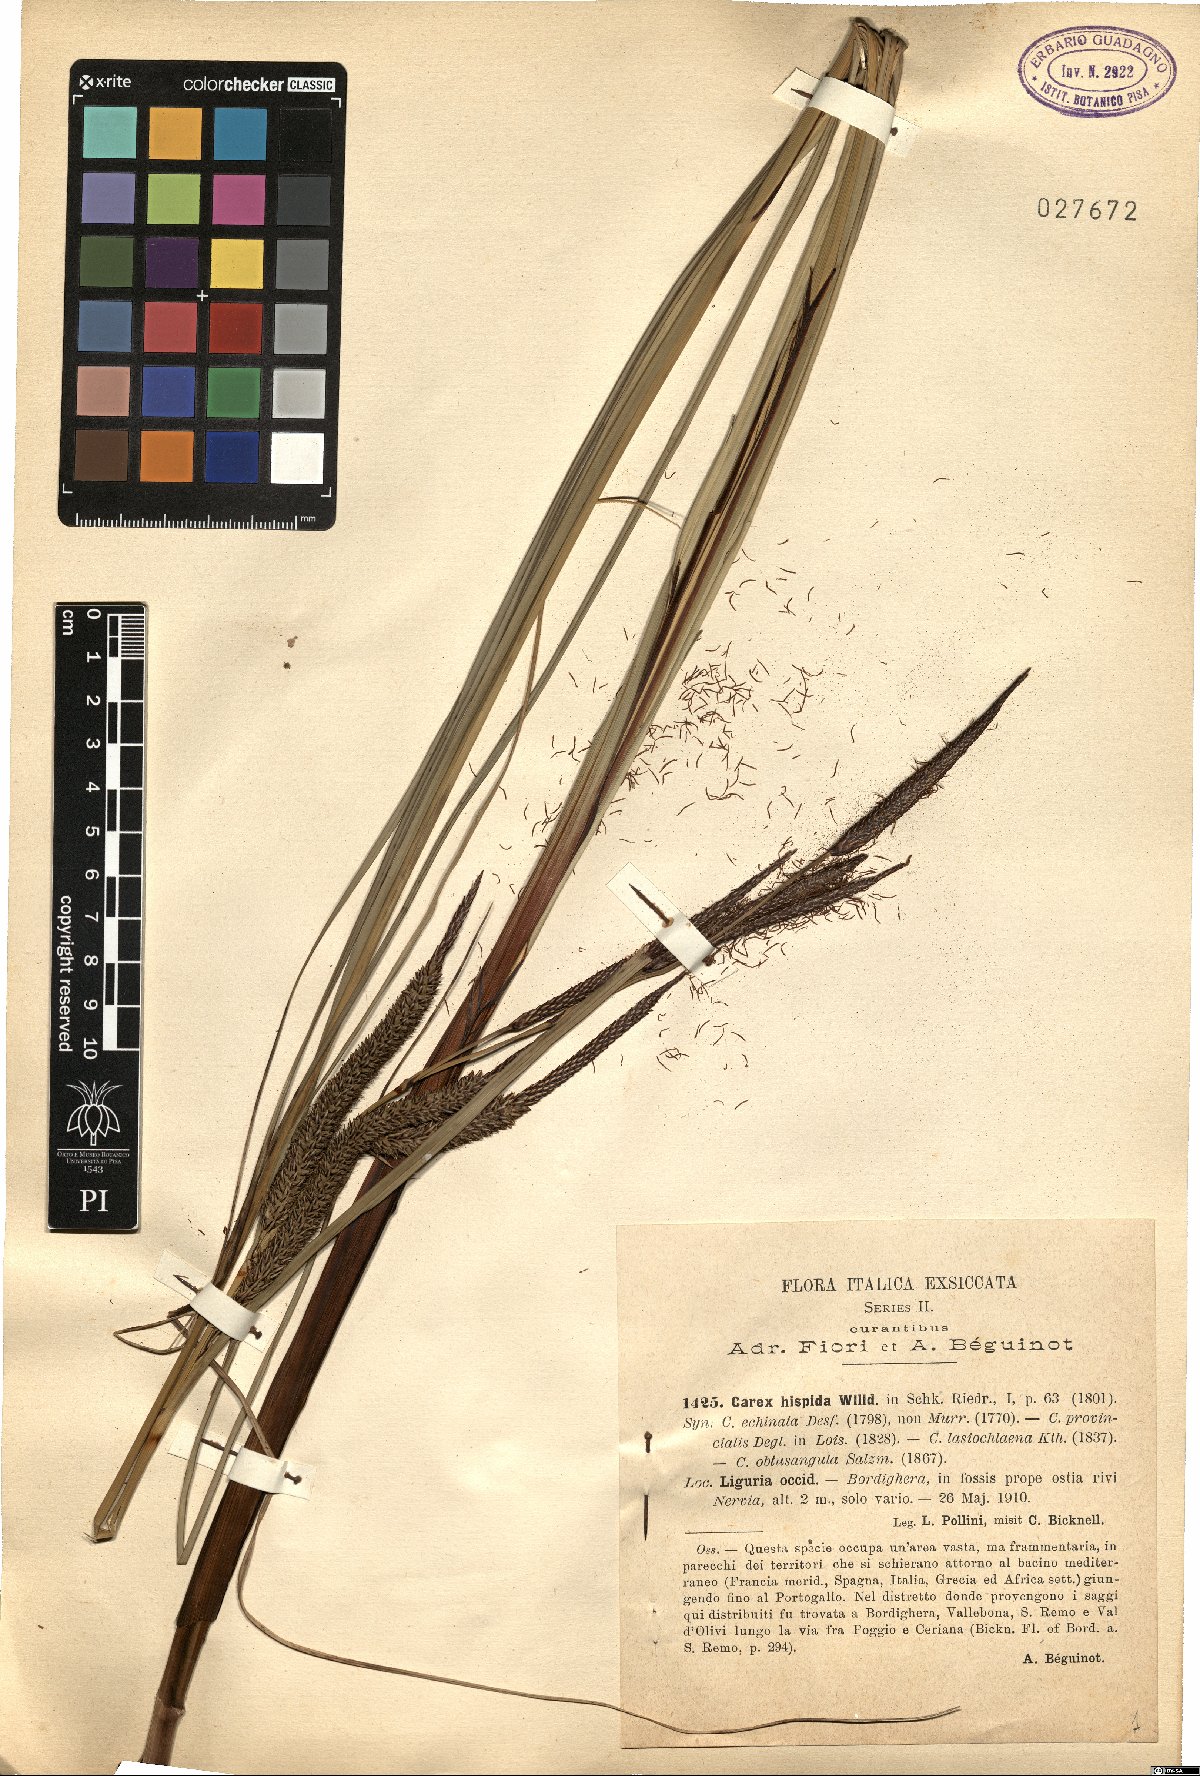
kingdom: Plantae
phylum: Tracheophyta
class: Liliopsida
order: Poales
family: Cyperaceae
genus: Carex
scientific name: Carex hispida
